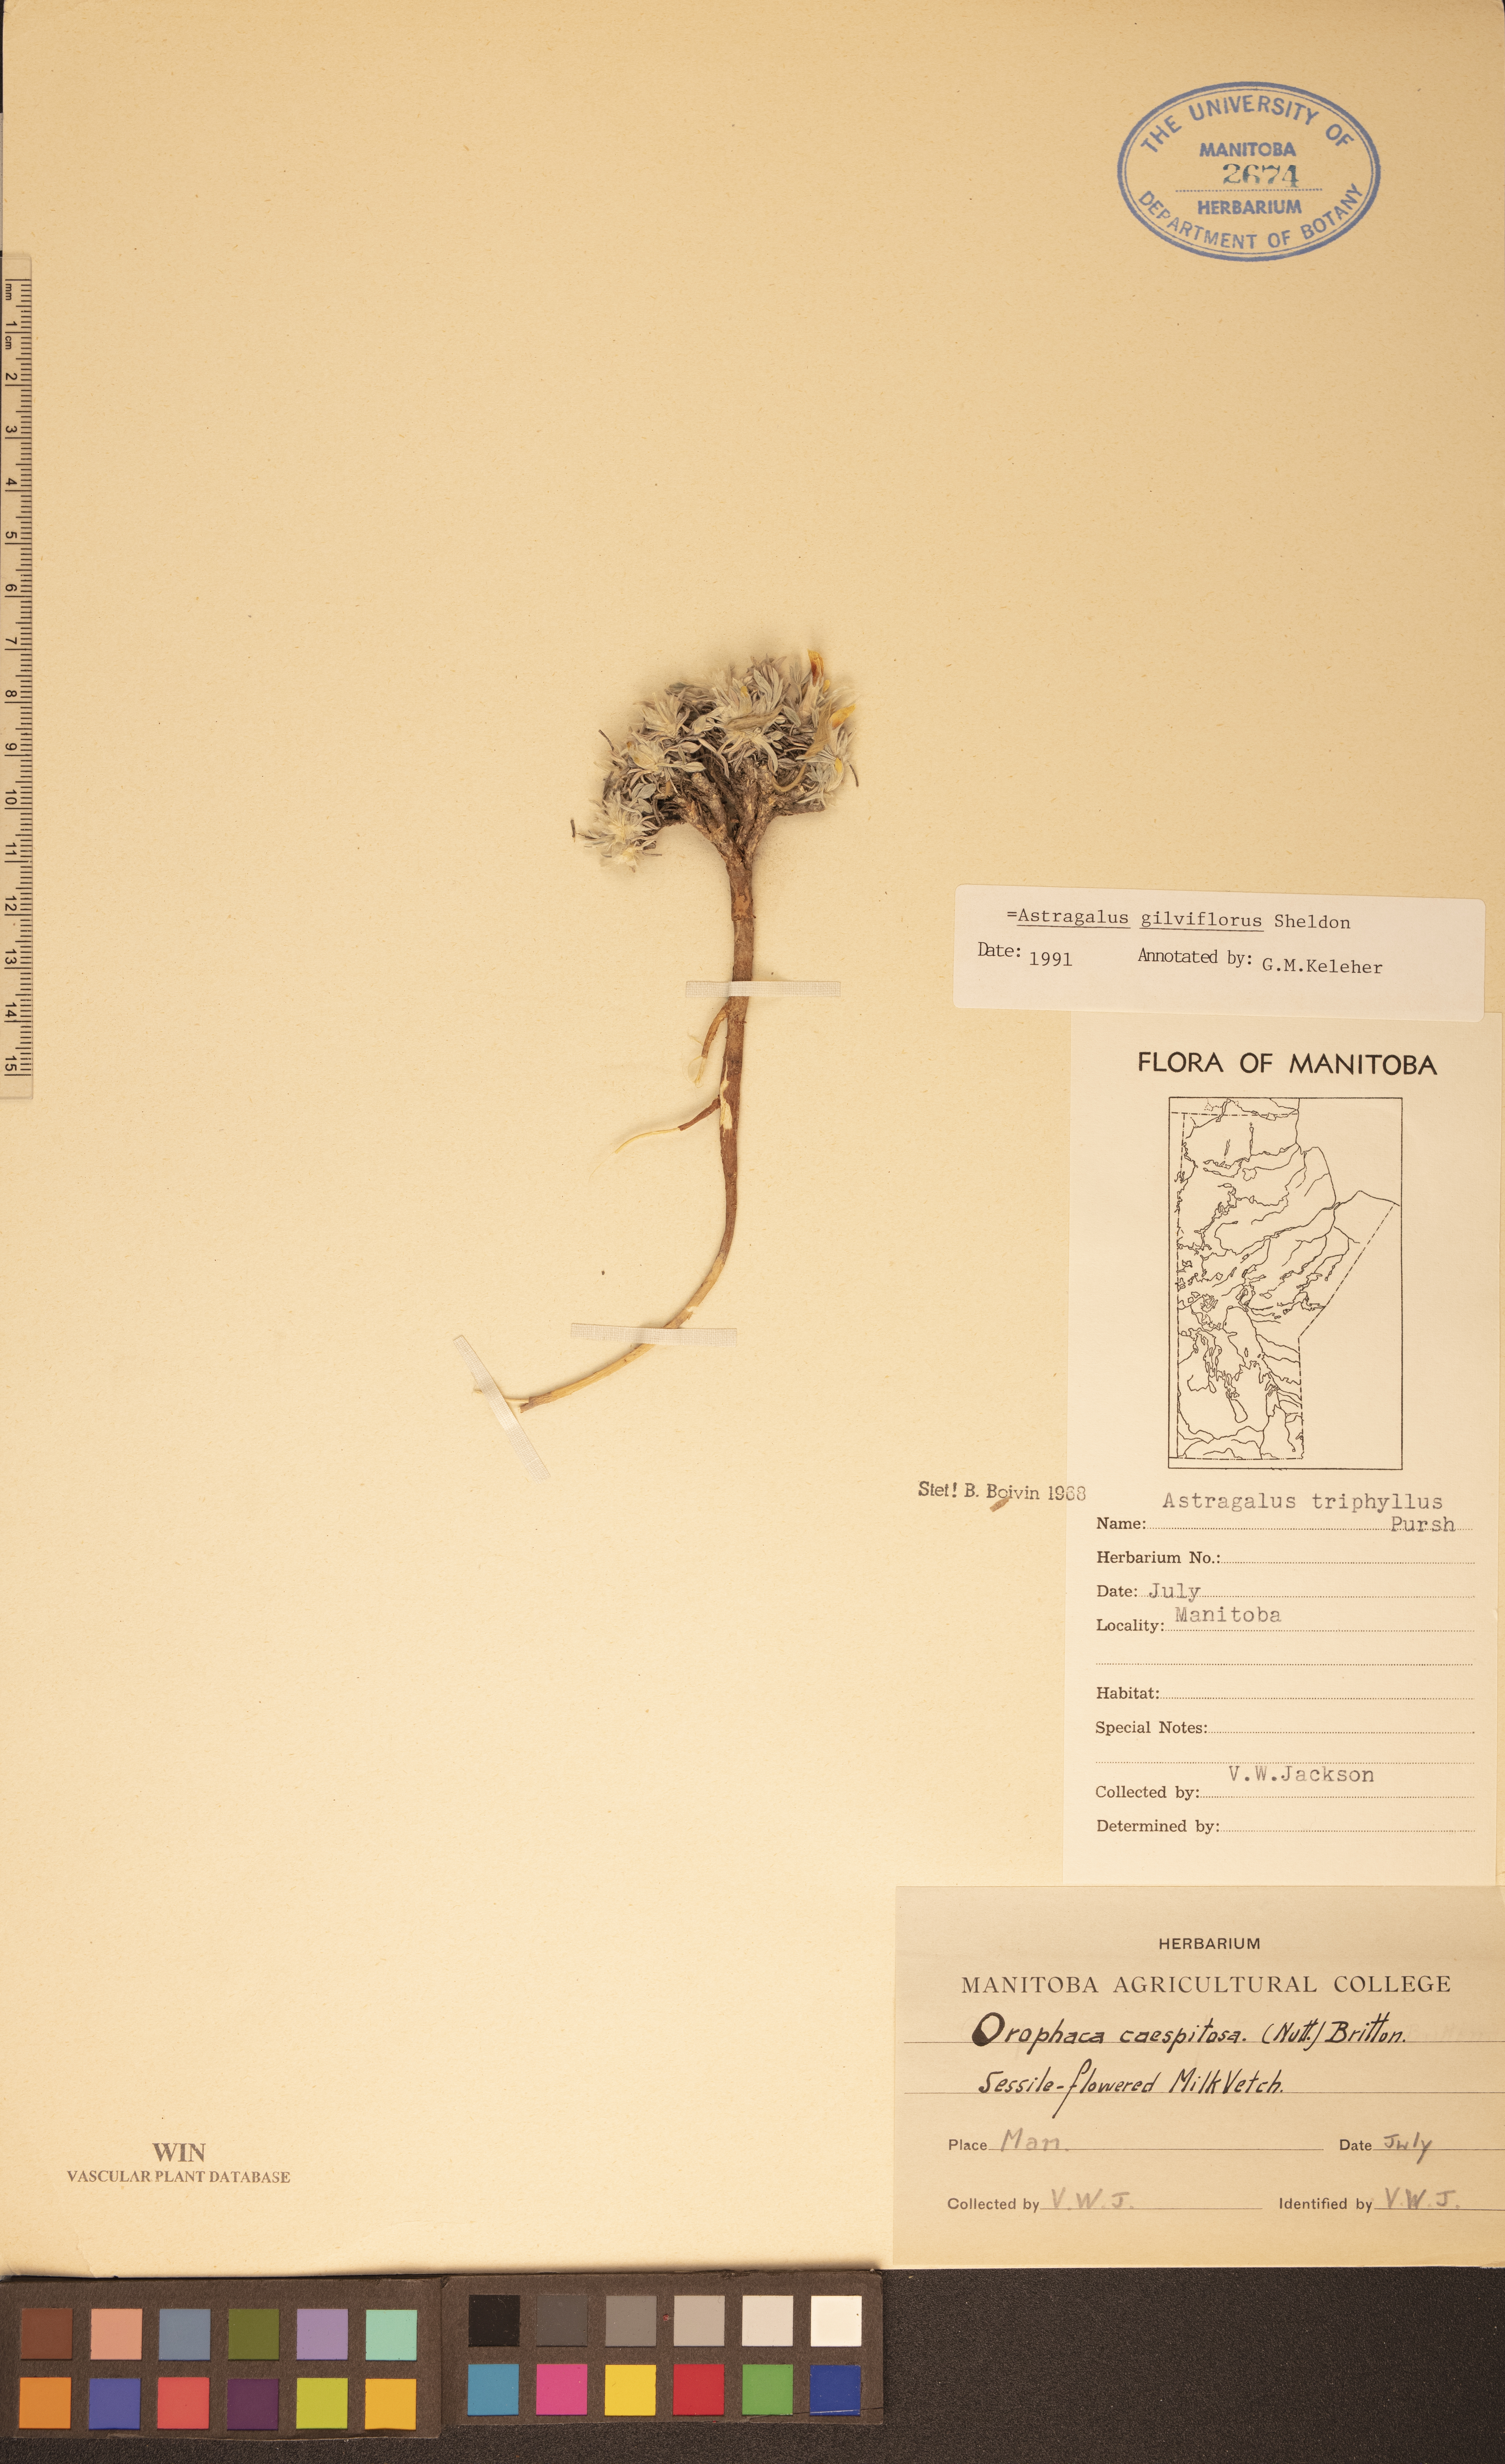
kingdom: Plantae
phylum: Tracheophyta
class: Magnoliopsida
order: Fabales
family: Fabaceae
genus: Astragalus
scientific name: Astragalus gilviflorus
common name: Cushion milk-vetch
